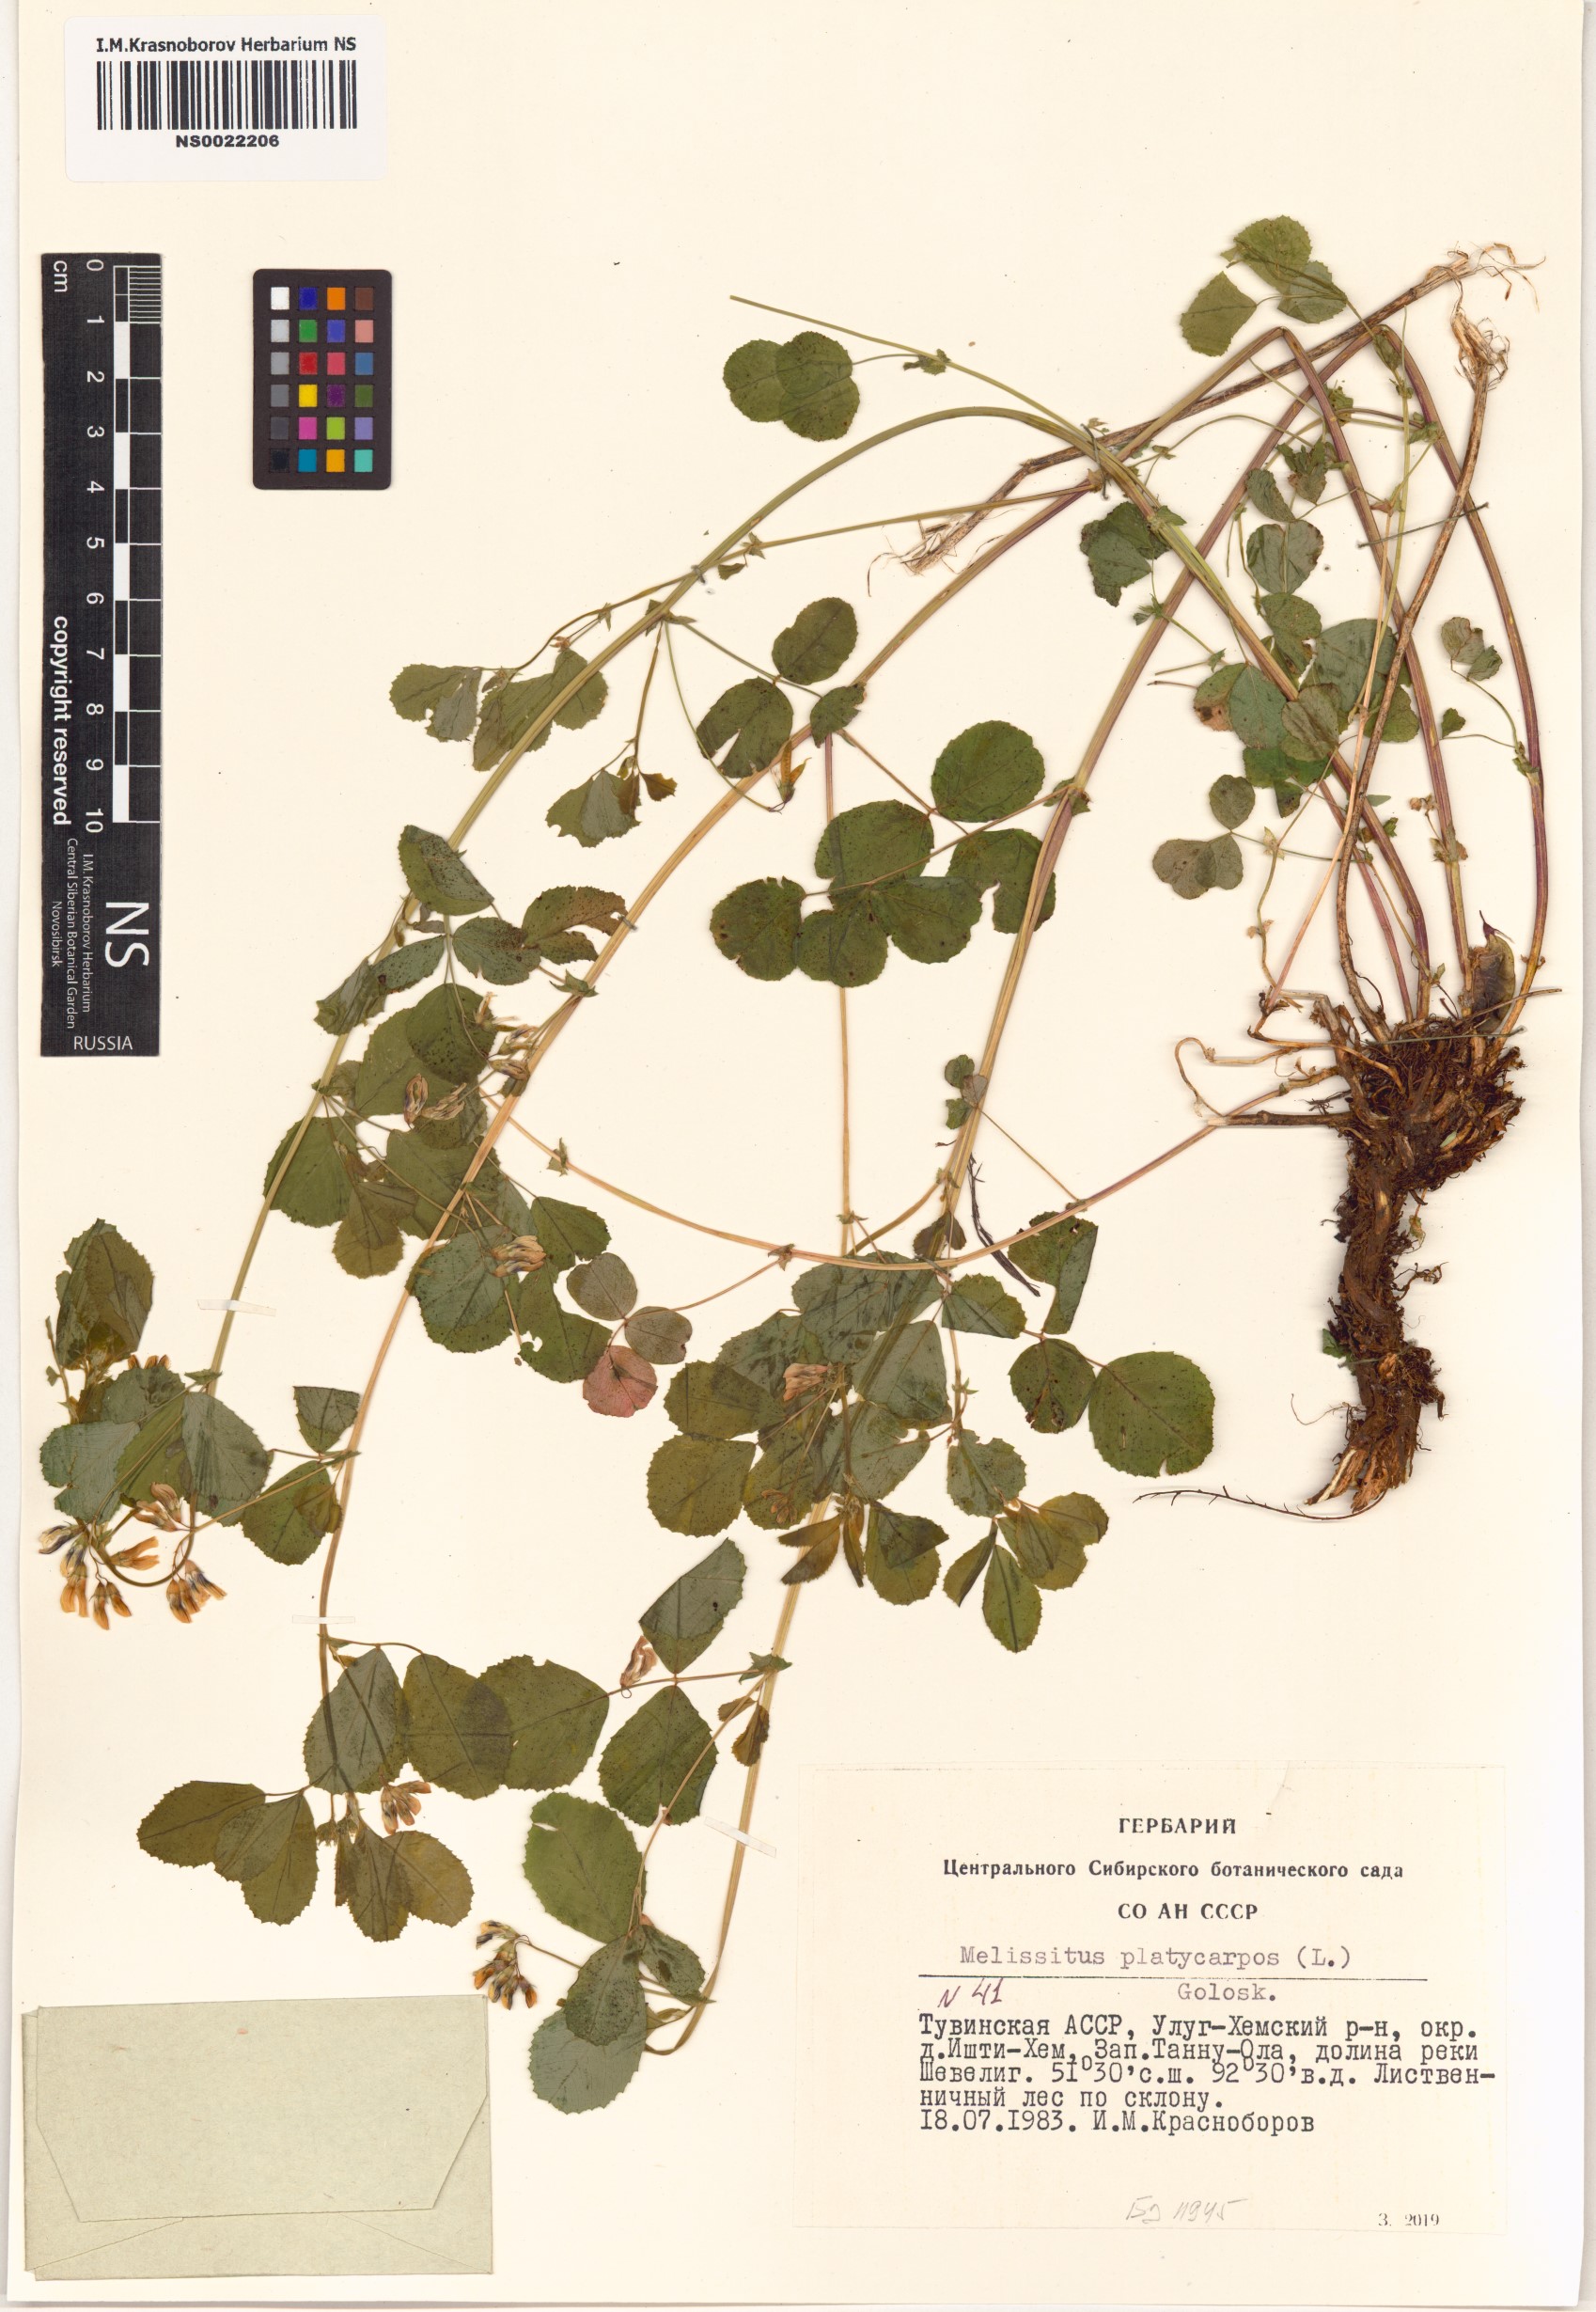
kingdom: Plantae
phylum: Tracheophyta
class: Magnoliopsida
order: Fabales
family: Fabaceae
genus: Medicago
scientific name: Medicago platycarpos
